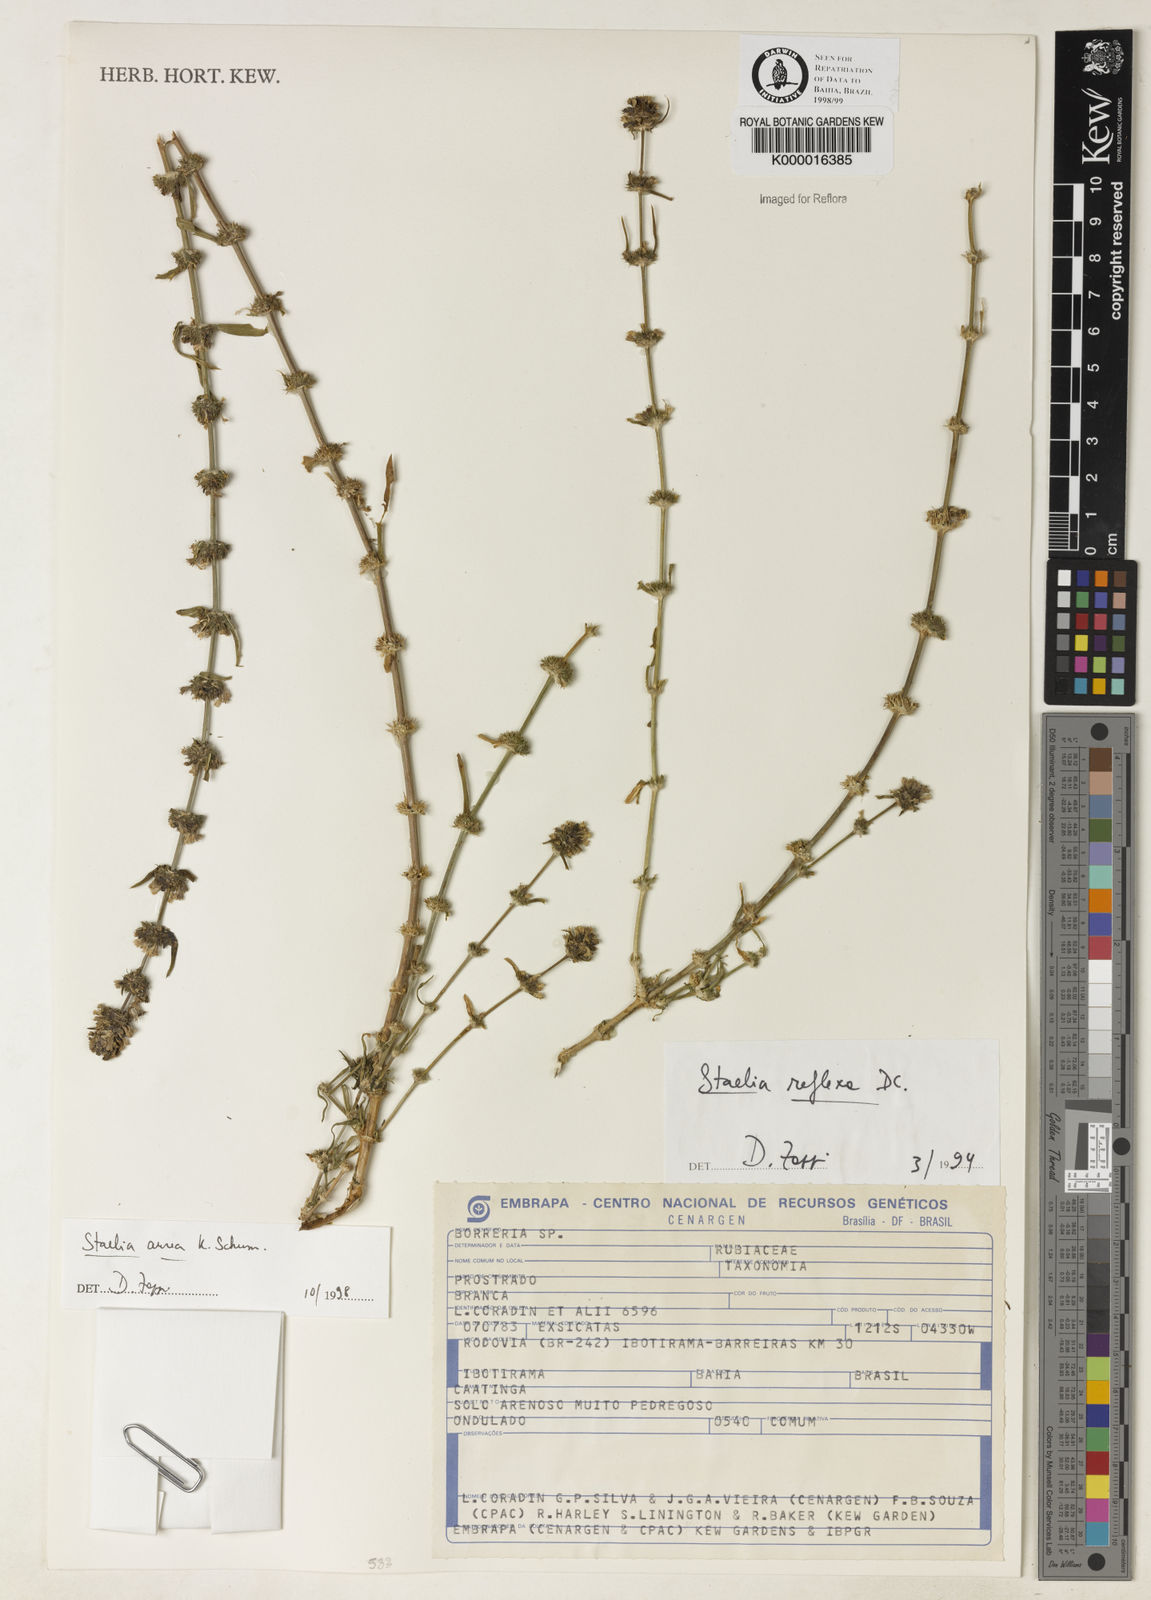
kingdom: Plantae
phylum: Tracheophyta
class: Magnoliopsida
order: Gentianales
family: Rubiaceae
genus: Staelia
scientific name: Staelia aurea
